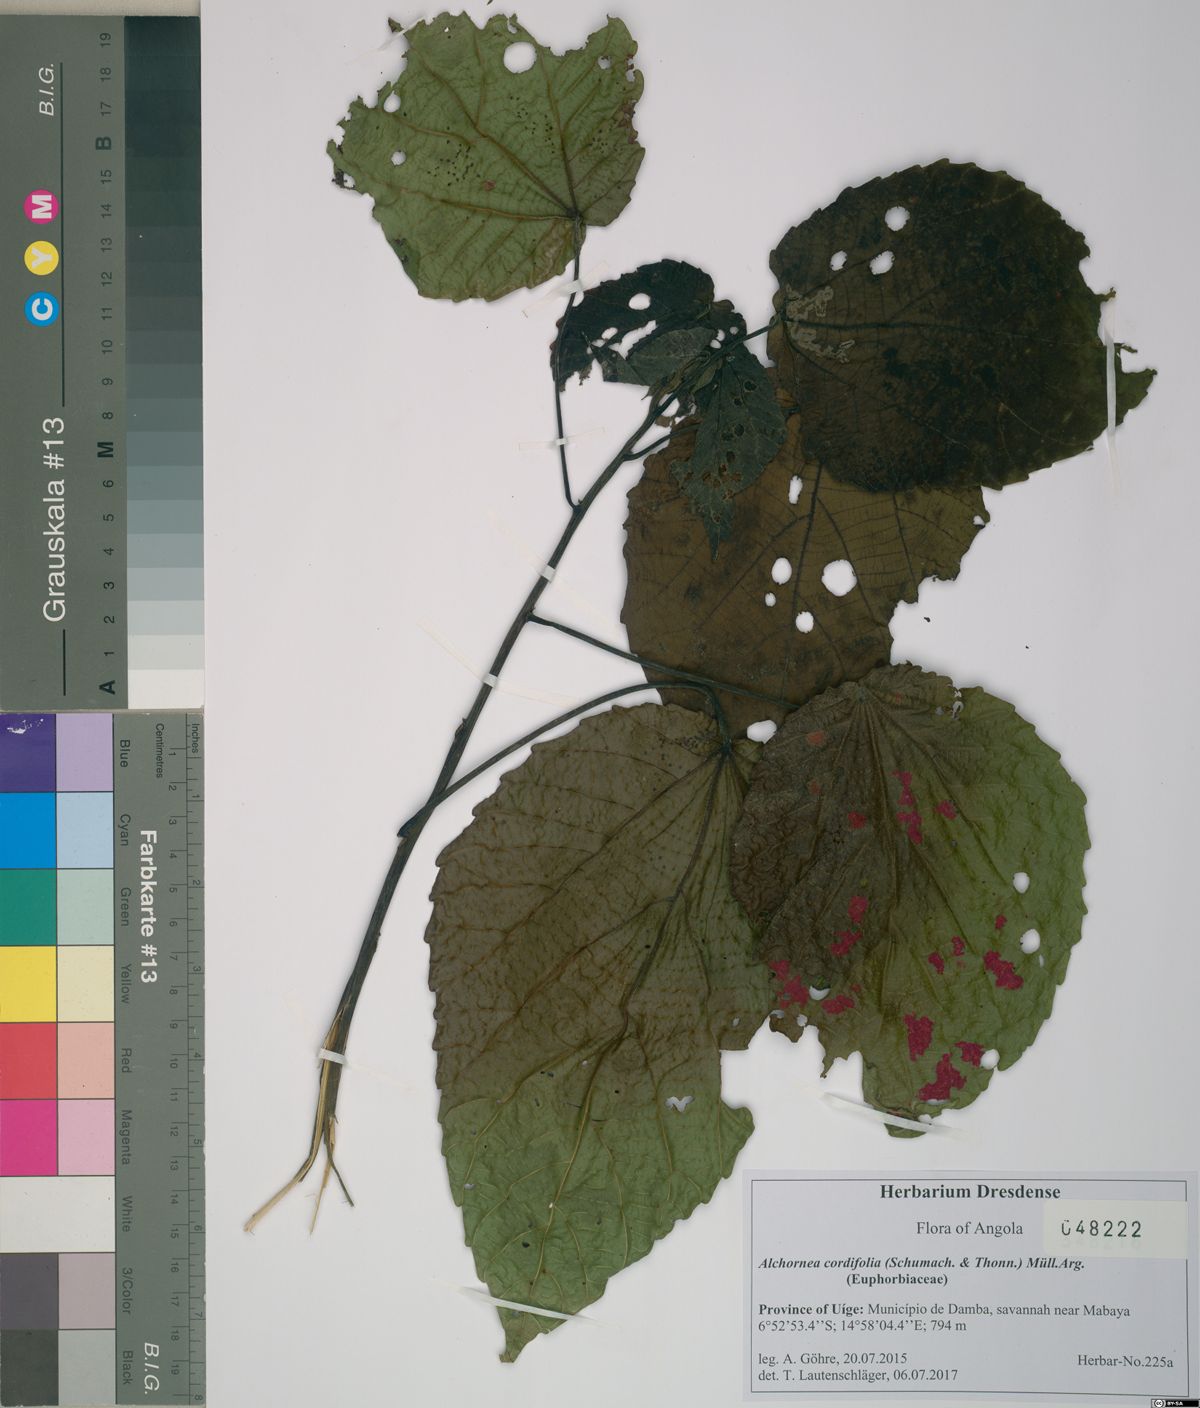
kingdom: Plantae
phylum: Tracheophyta
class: Magnoliopsida
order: Malpighiales
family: Euphorbiaceae
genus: Alchornea
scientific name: Alchornea cordifolia
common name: Christmasbush
